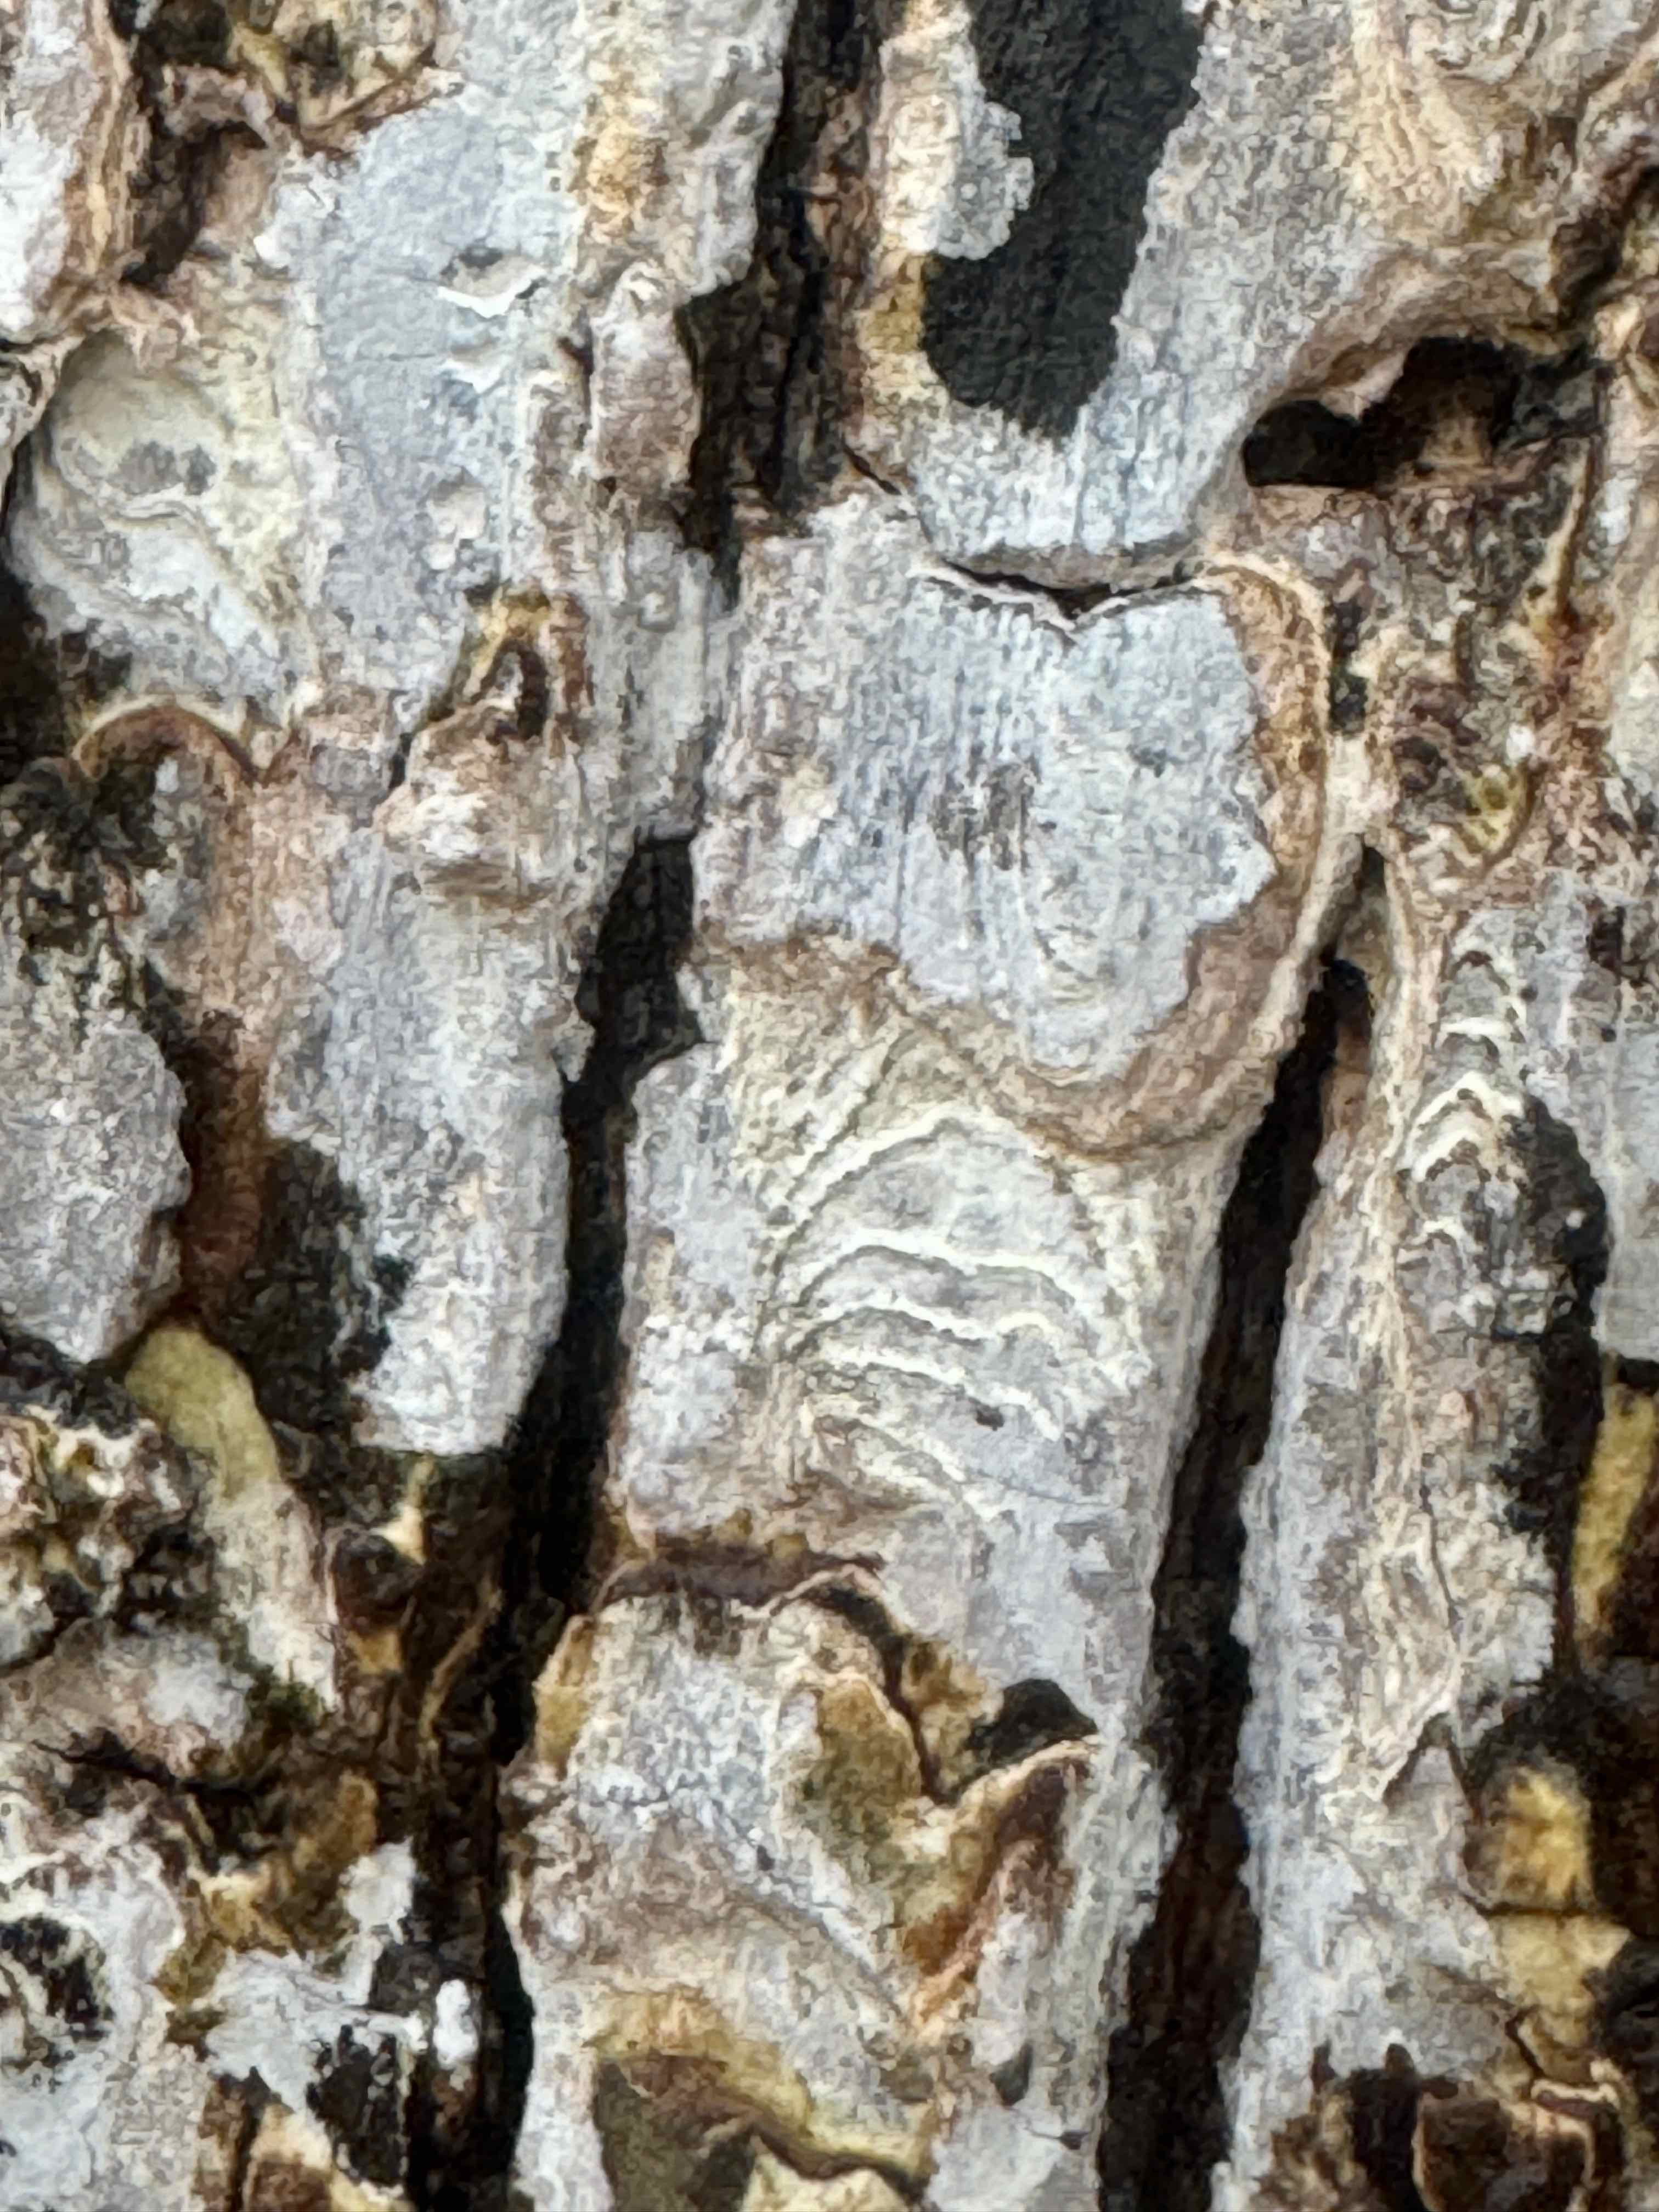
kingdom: Fungi
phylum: Basidiomycota
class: Agaricomycetes
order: Agaricales
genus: Dendrothele
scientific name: Dendrothele acerina
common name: navr-kalkplet
